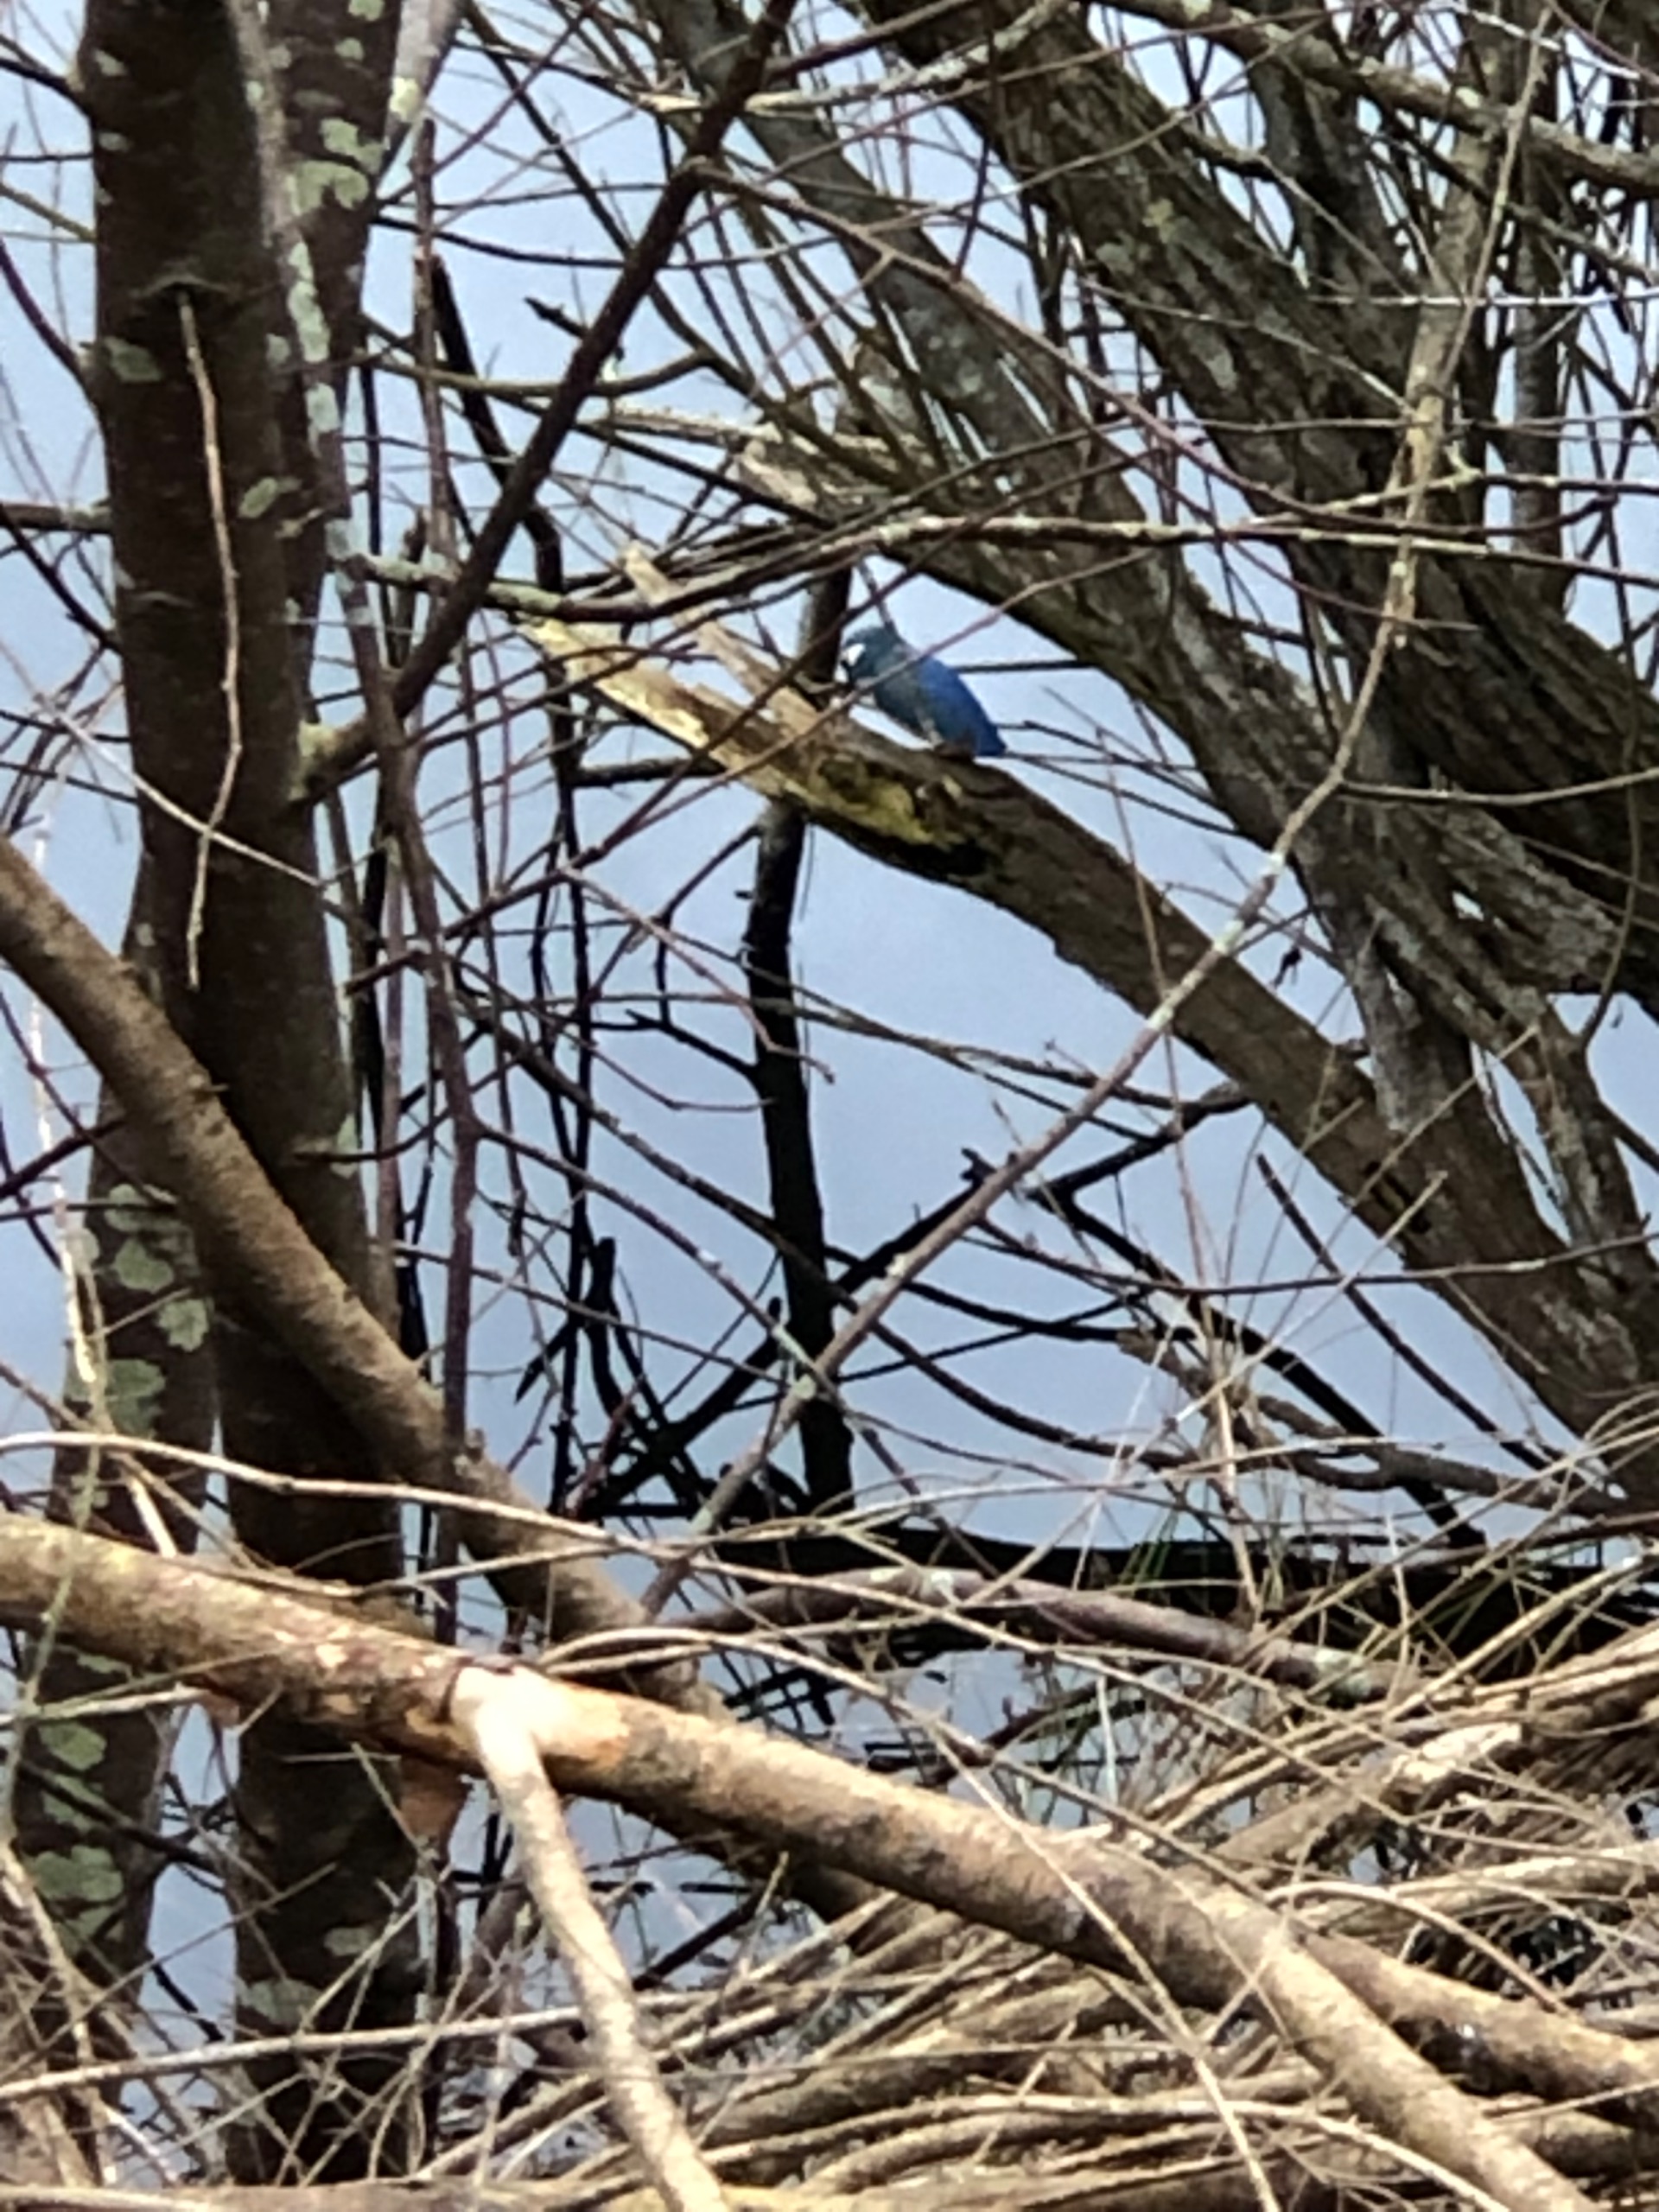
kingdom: Animalia
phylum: Chordata
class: Aves
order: Coraciiformes
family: Alcedinidae
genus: Alcedo
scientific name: Alcedo atthis
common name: Isfugl
